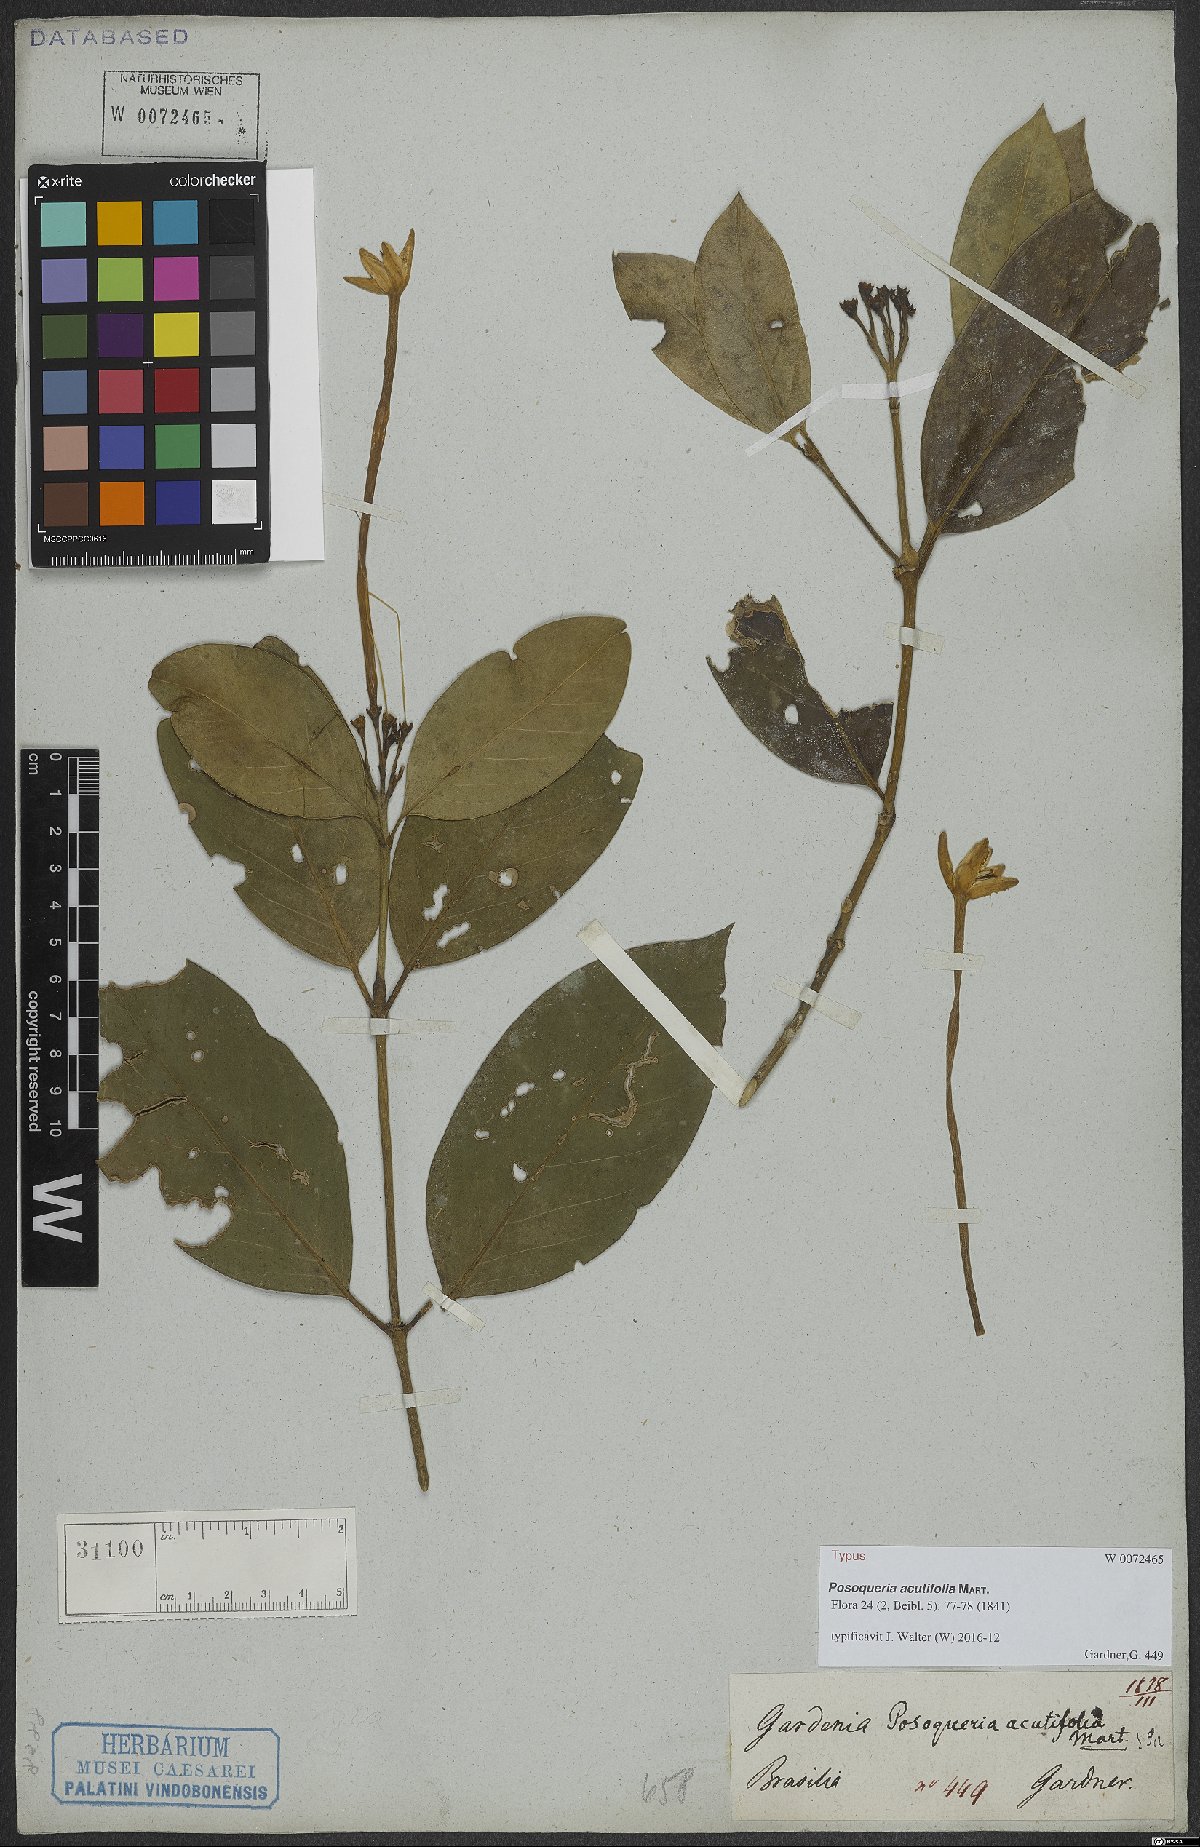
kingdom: Plantae
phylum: Tracheophyta
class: Magnoliopsida
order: Gentianales
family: Rubiaceae
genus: Posoqueria
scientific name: Posoqueria acutifolia
